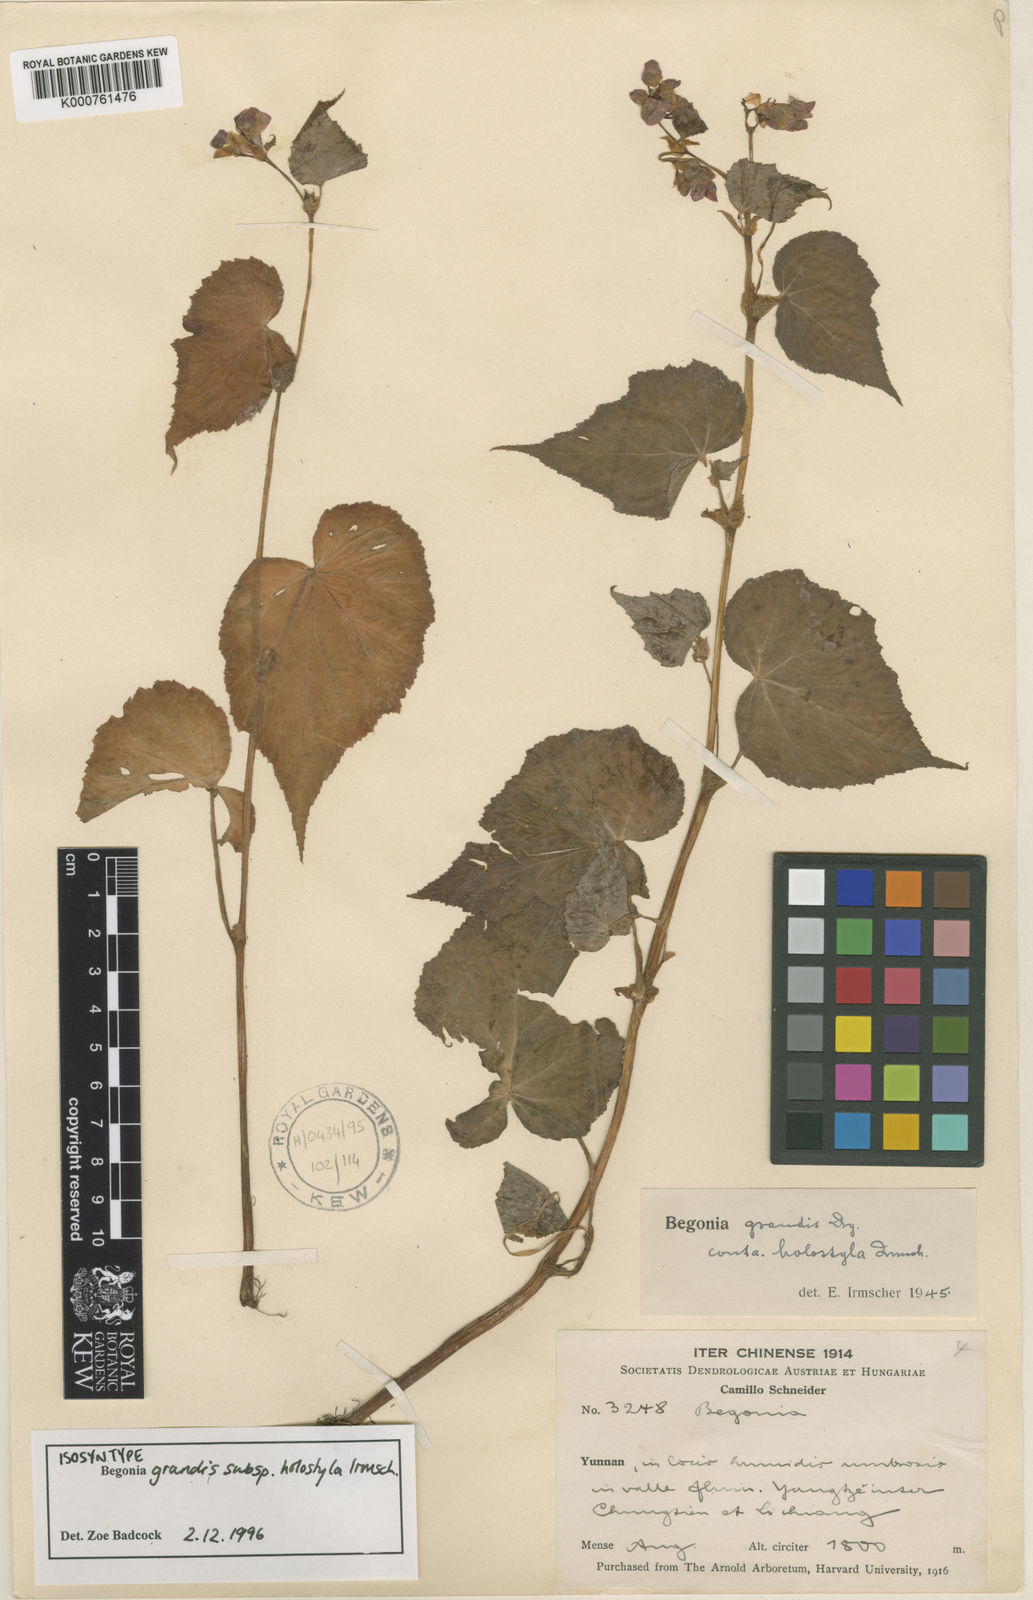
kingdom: Plantae
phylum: Tracheophyta
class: Magnoliopsida
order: Cucurbitales
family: Begoniaceae
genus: Begonia
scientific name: Begonia grandis
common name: Hardy begonia
